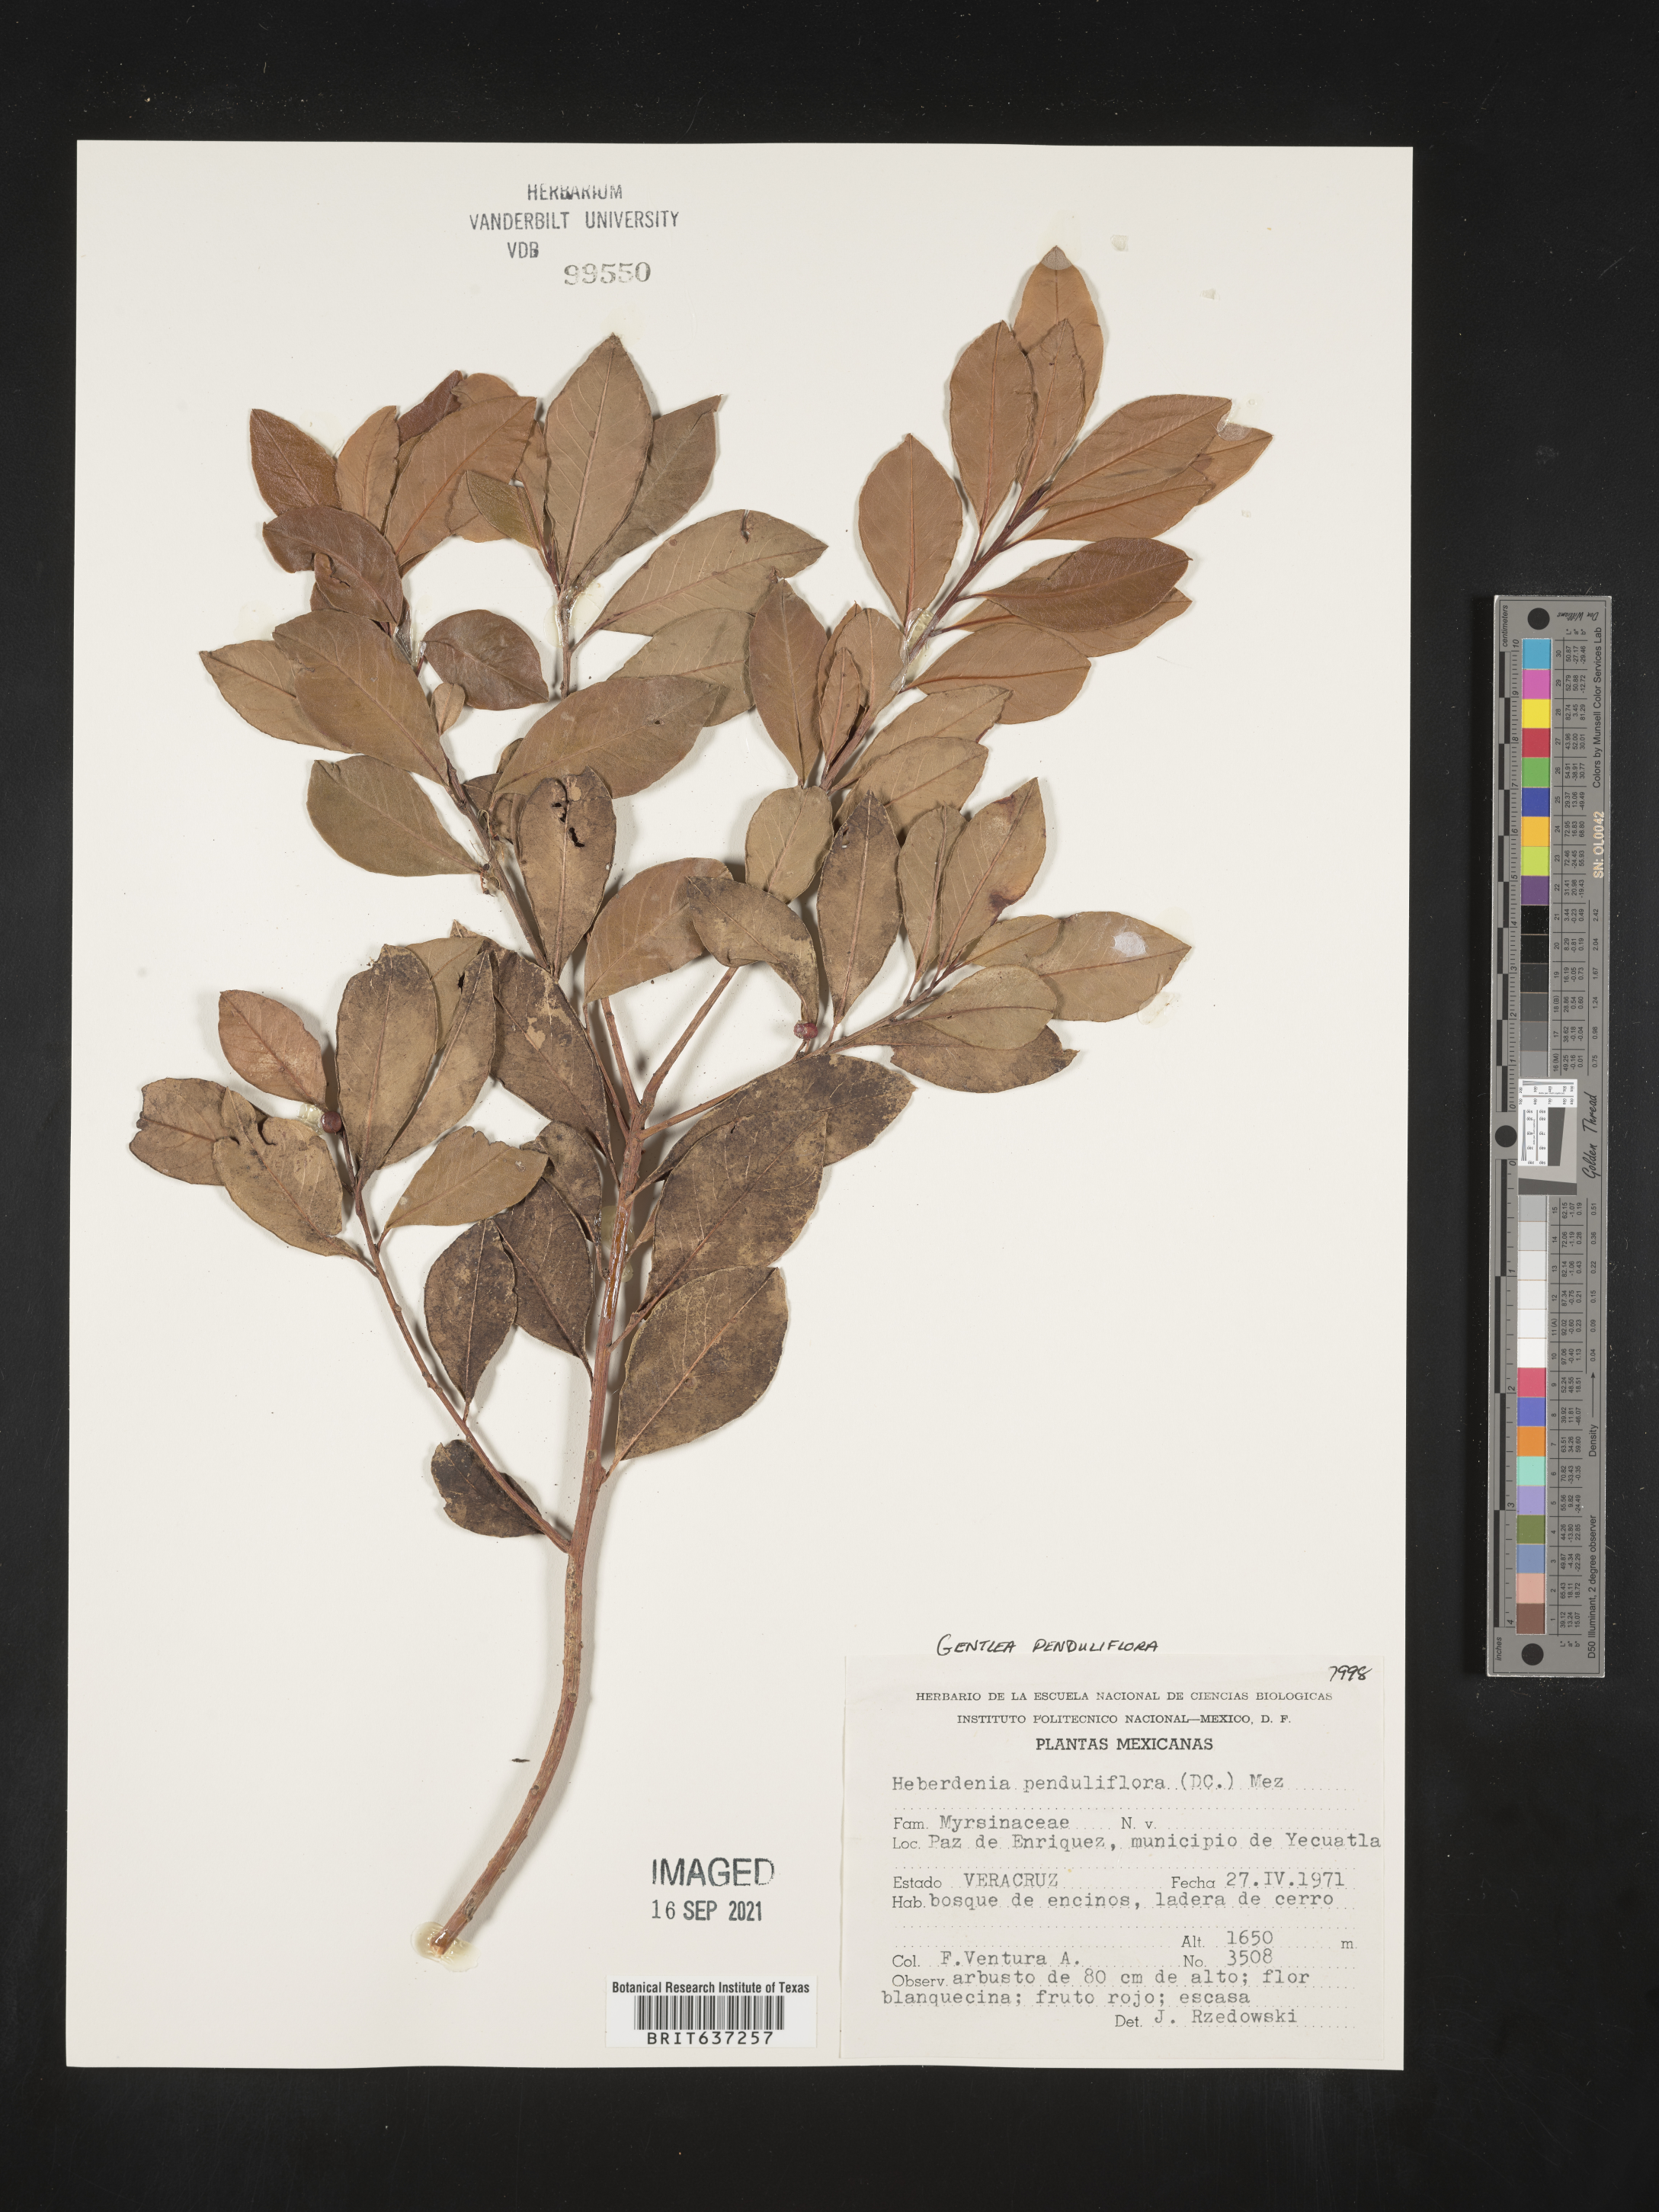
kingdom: Plantae
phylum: Tracheophyta
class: Magnoliopsida
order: Ericales
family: Primulaceae
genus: Gentlea
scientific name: Gentlea
